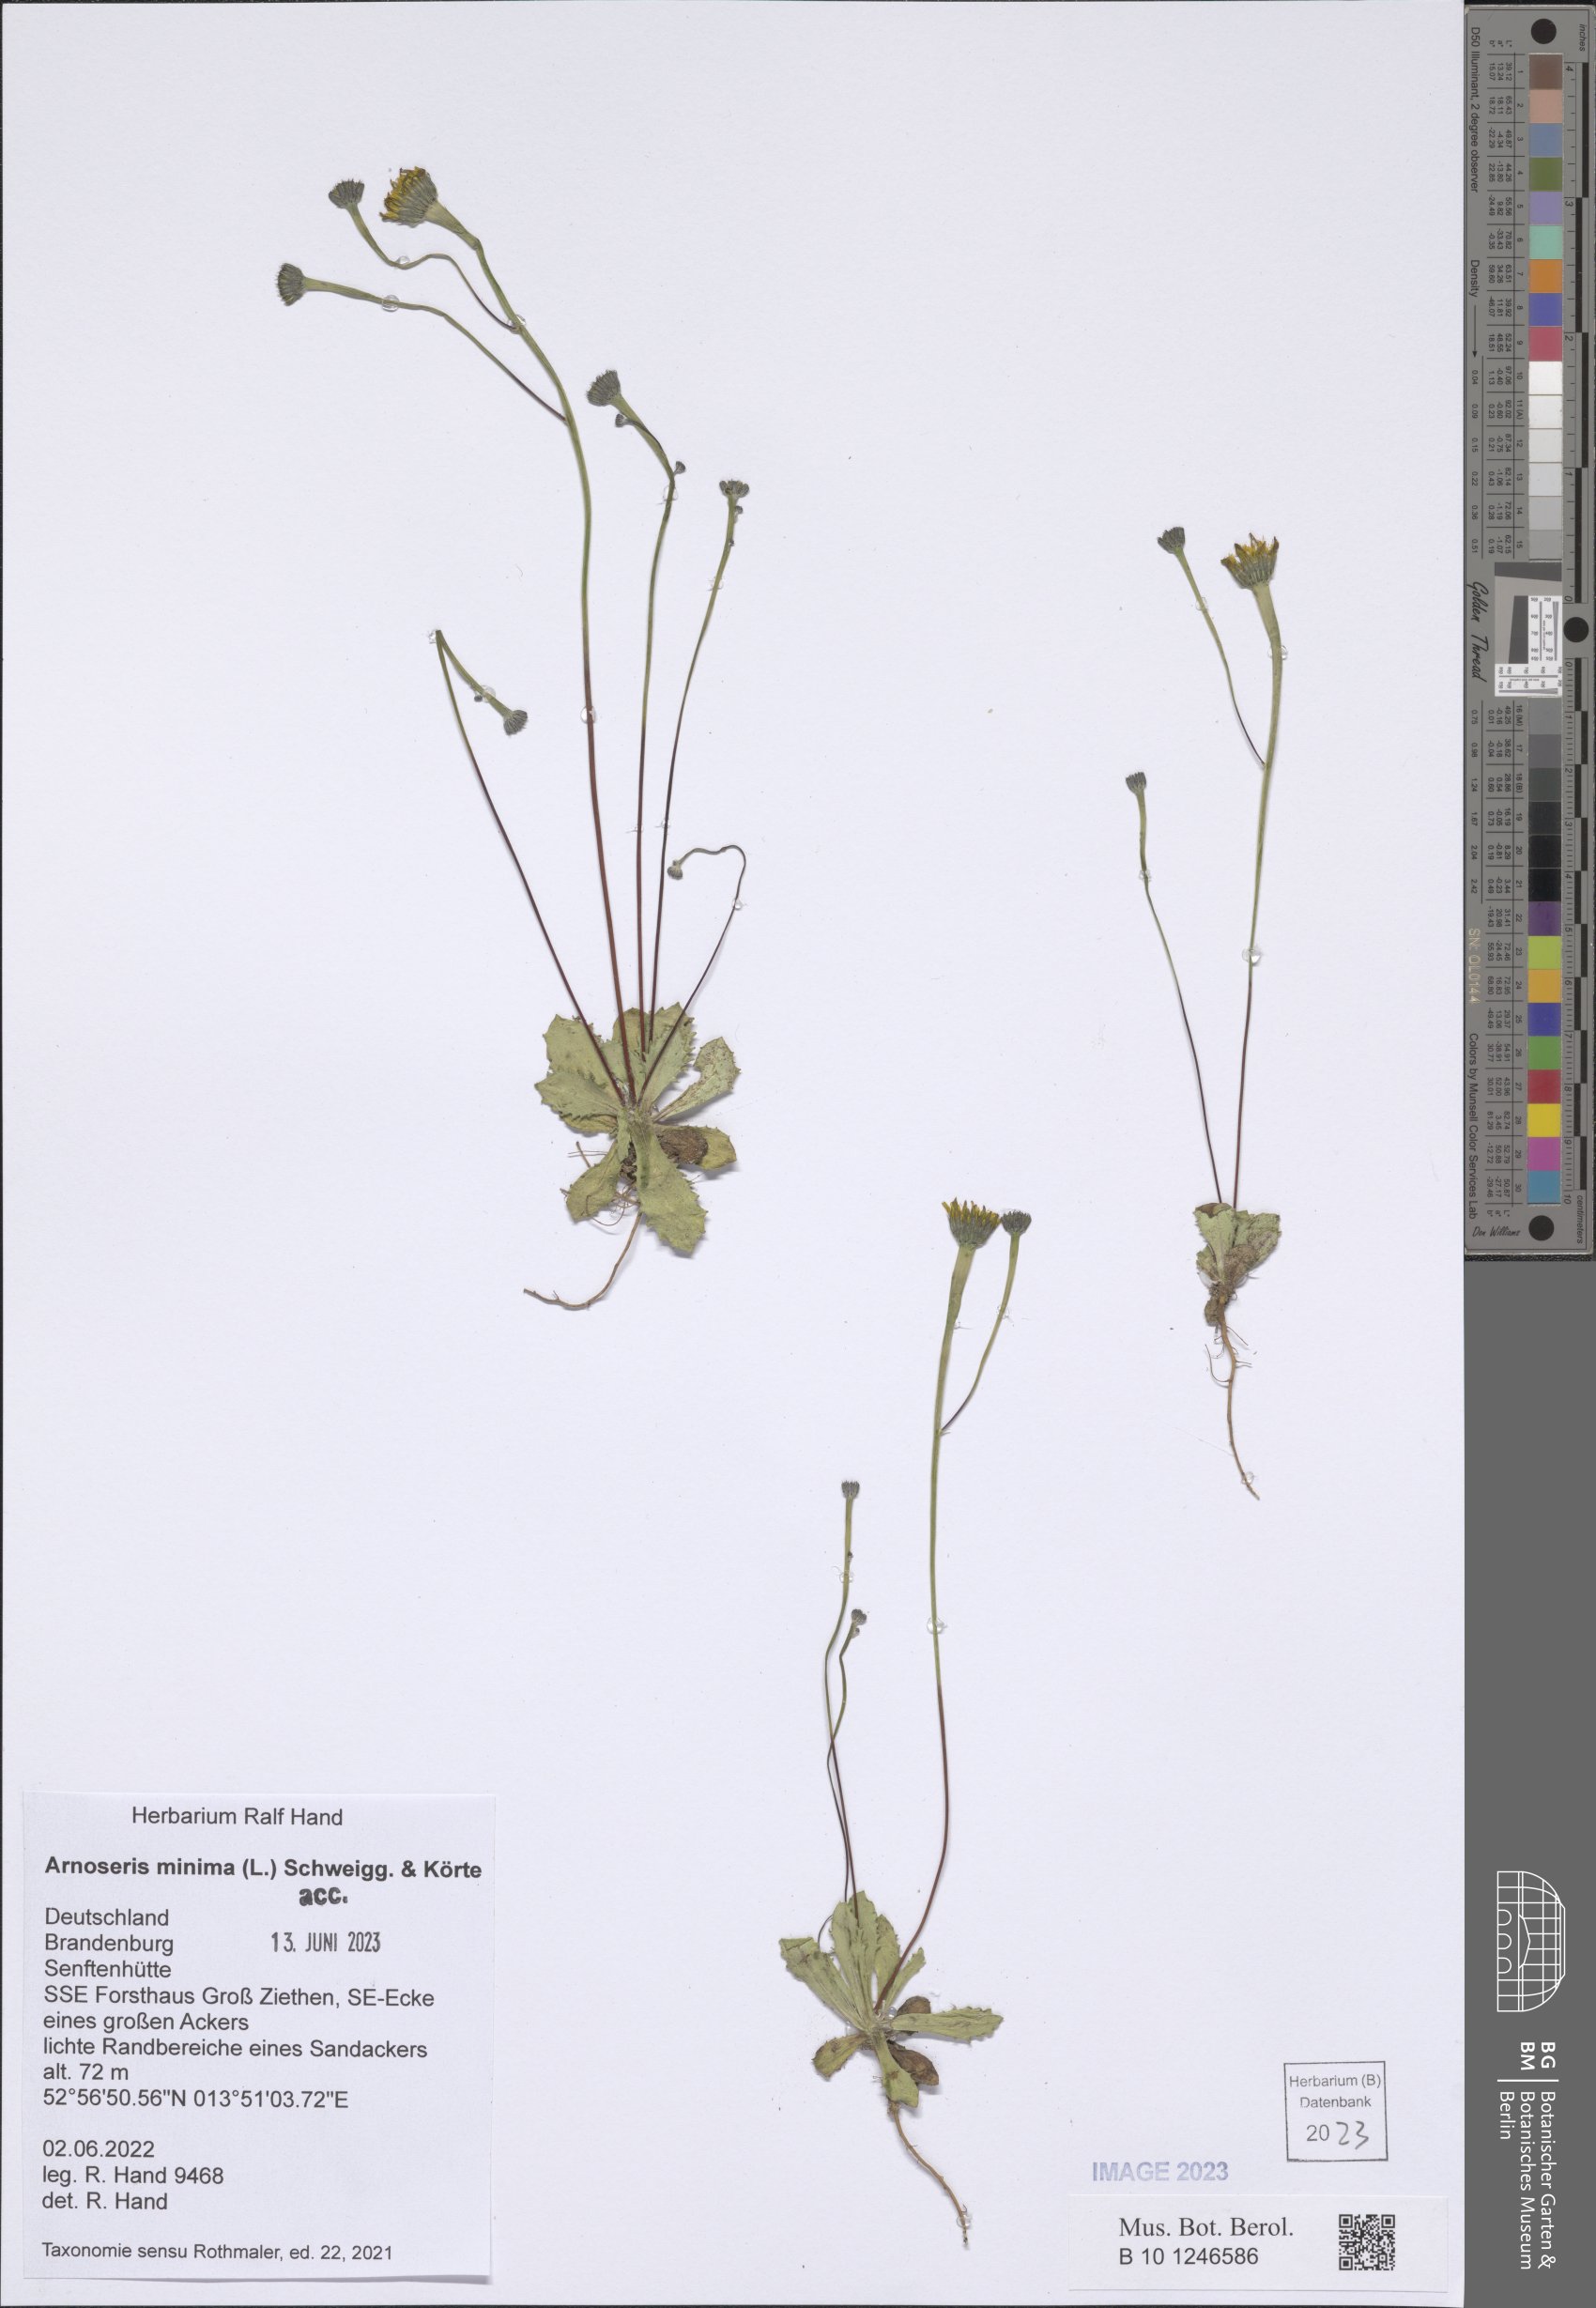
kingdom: Plantae
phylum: Tracheophyta
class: Magnoliopsida
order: Asterales
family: Asteraceae
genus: Arnoseris
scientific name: Arnoseris minima
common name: Lamb's succory
